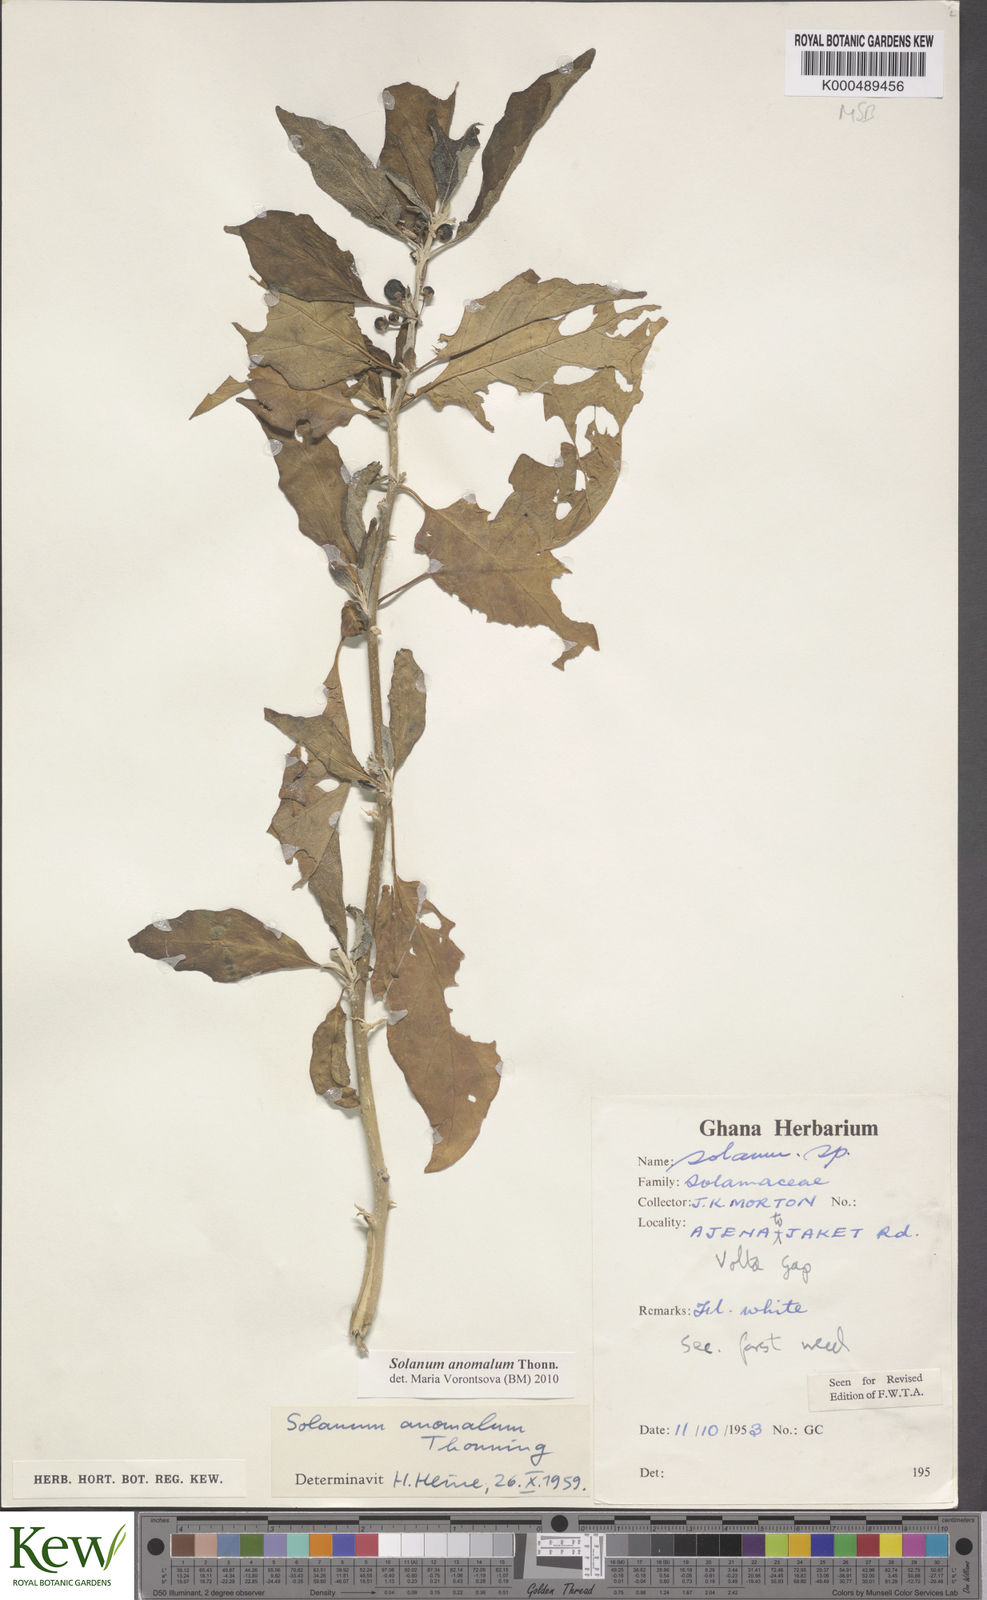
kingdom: Plantae
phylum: Tracheophyta
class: Magnoliopsida
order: Solanales
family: Solanaceae
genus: Solanum
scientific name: Solanum anomalum
